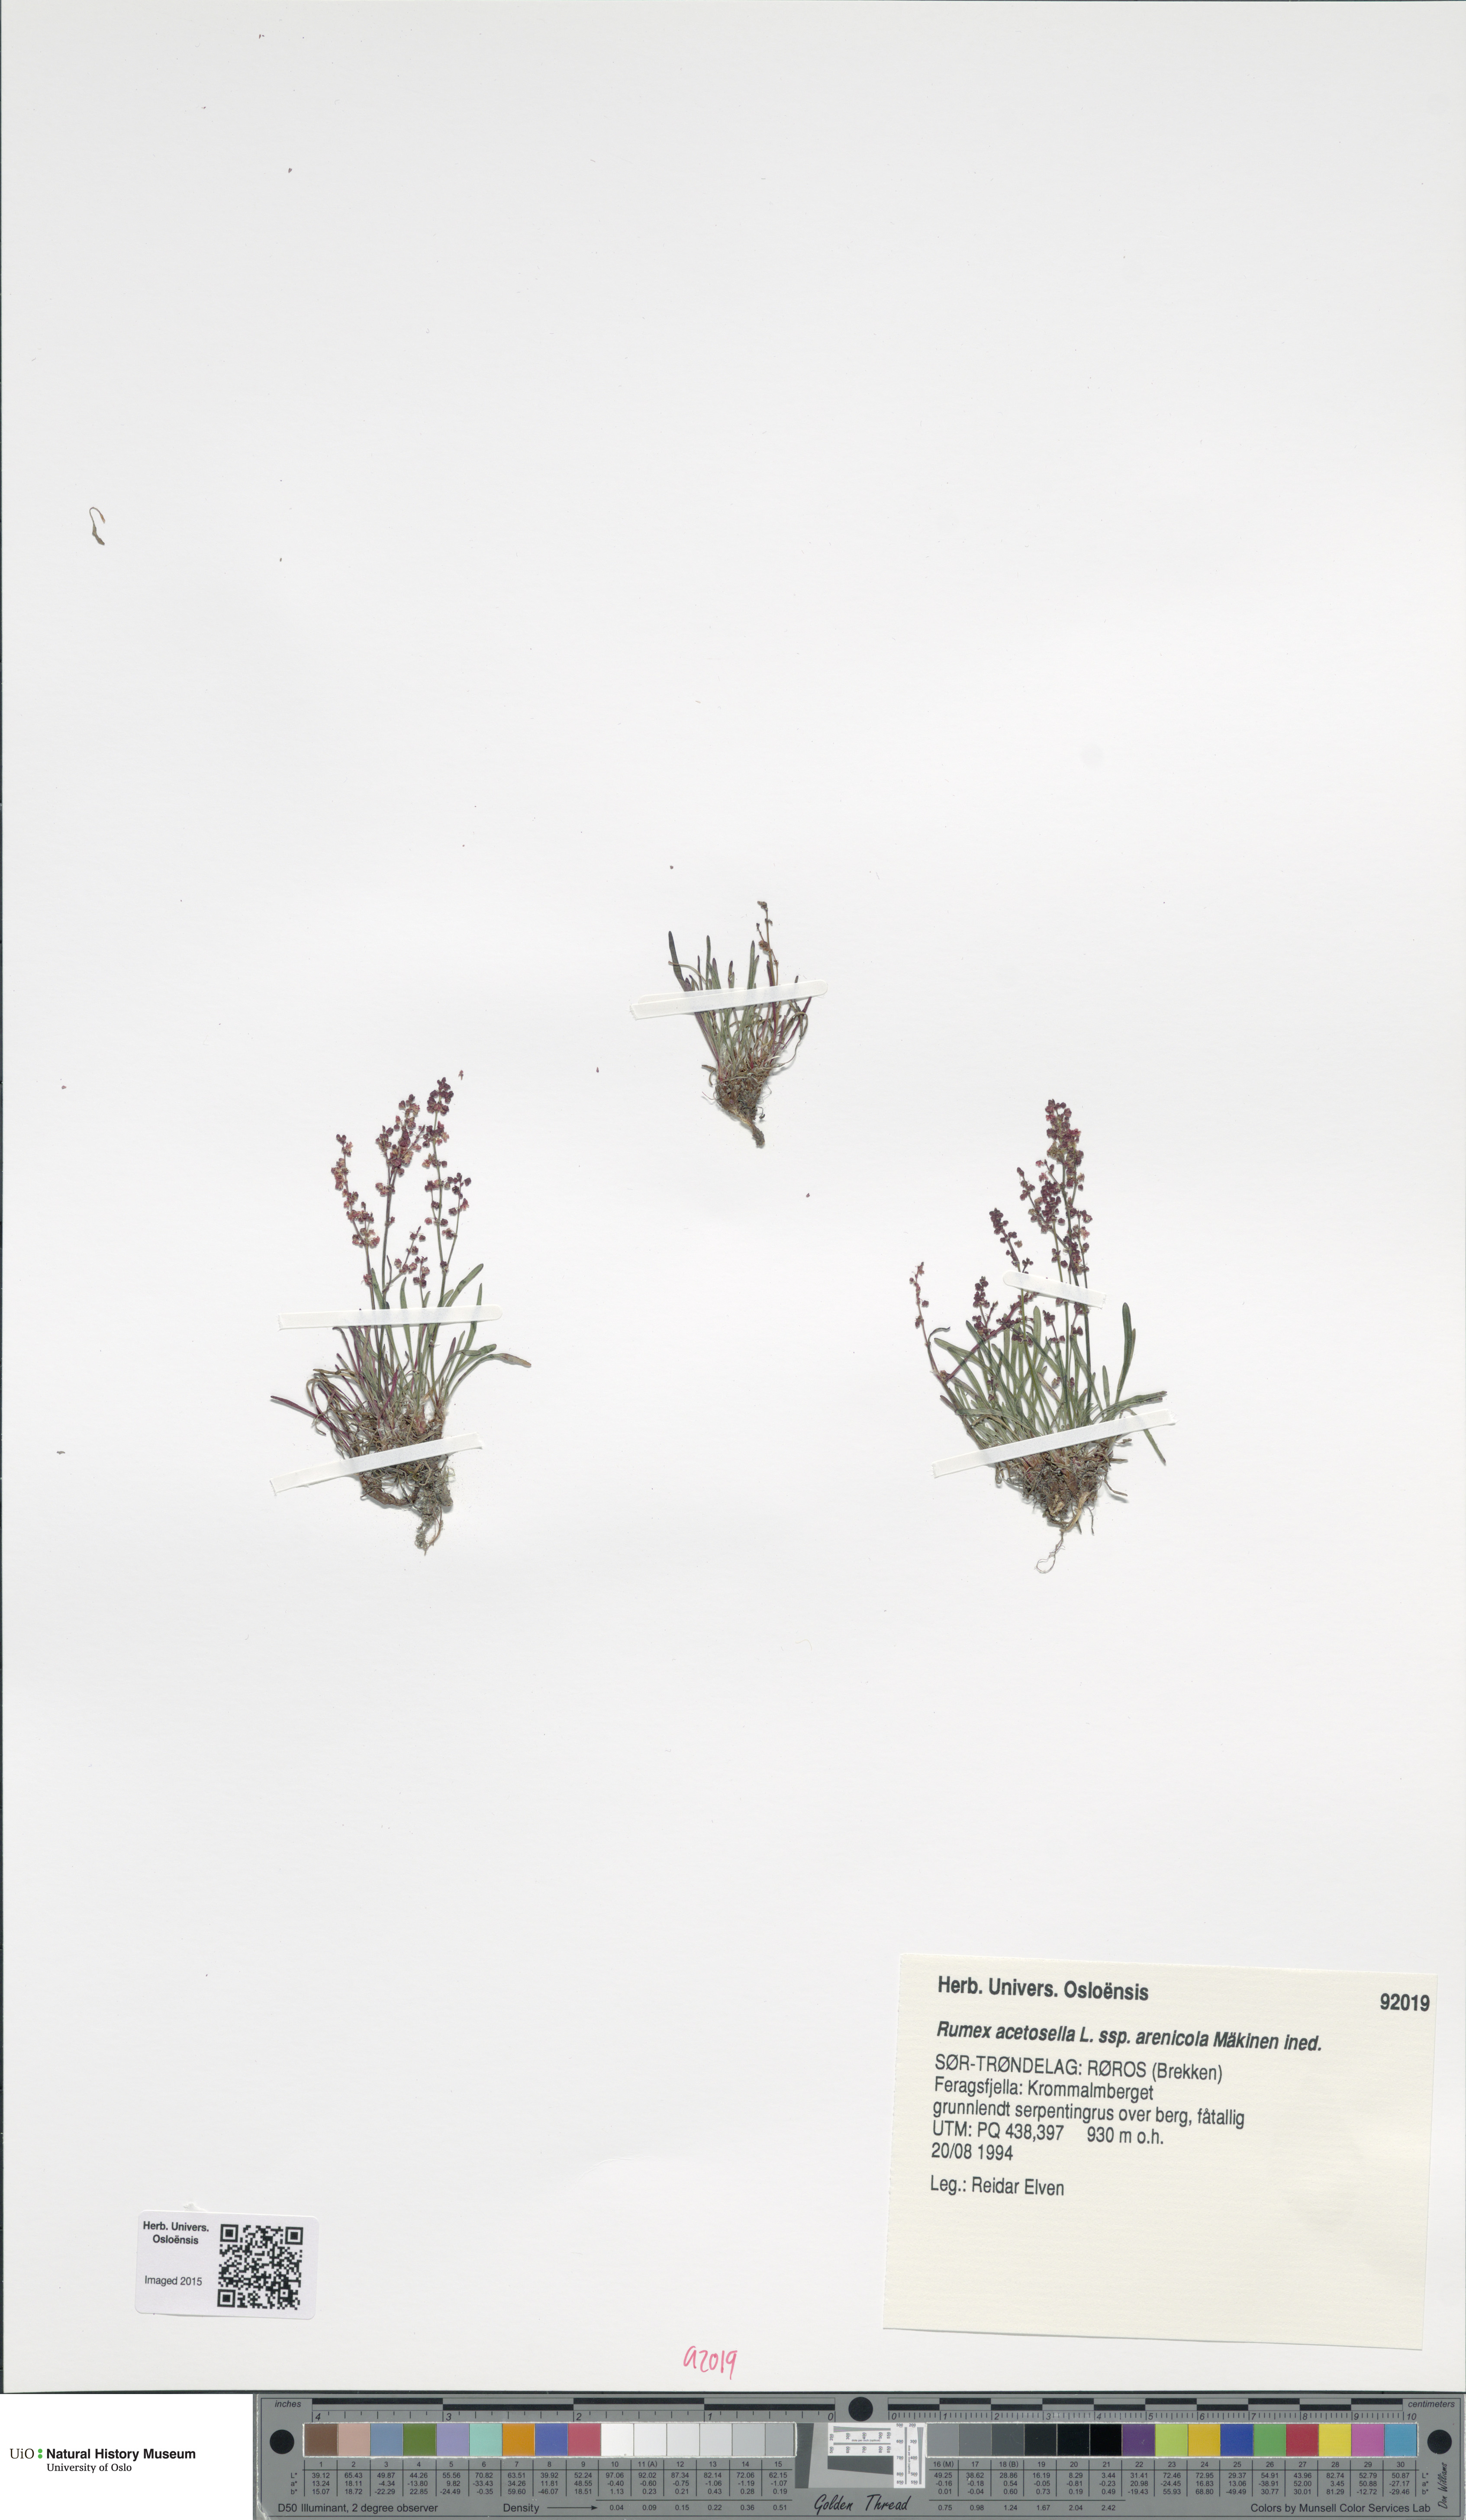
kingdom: Plantae
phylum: Tracheophyta
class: Magnoliopsida
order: Caryophyllales
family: Polygonaceae
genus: Rumex
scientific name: Rumex acetosella
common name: Common sheep sorrel
